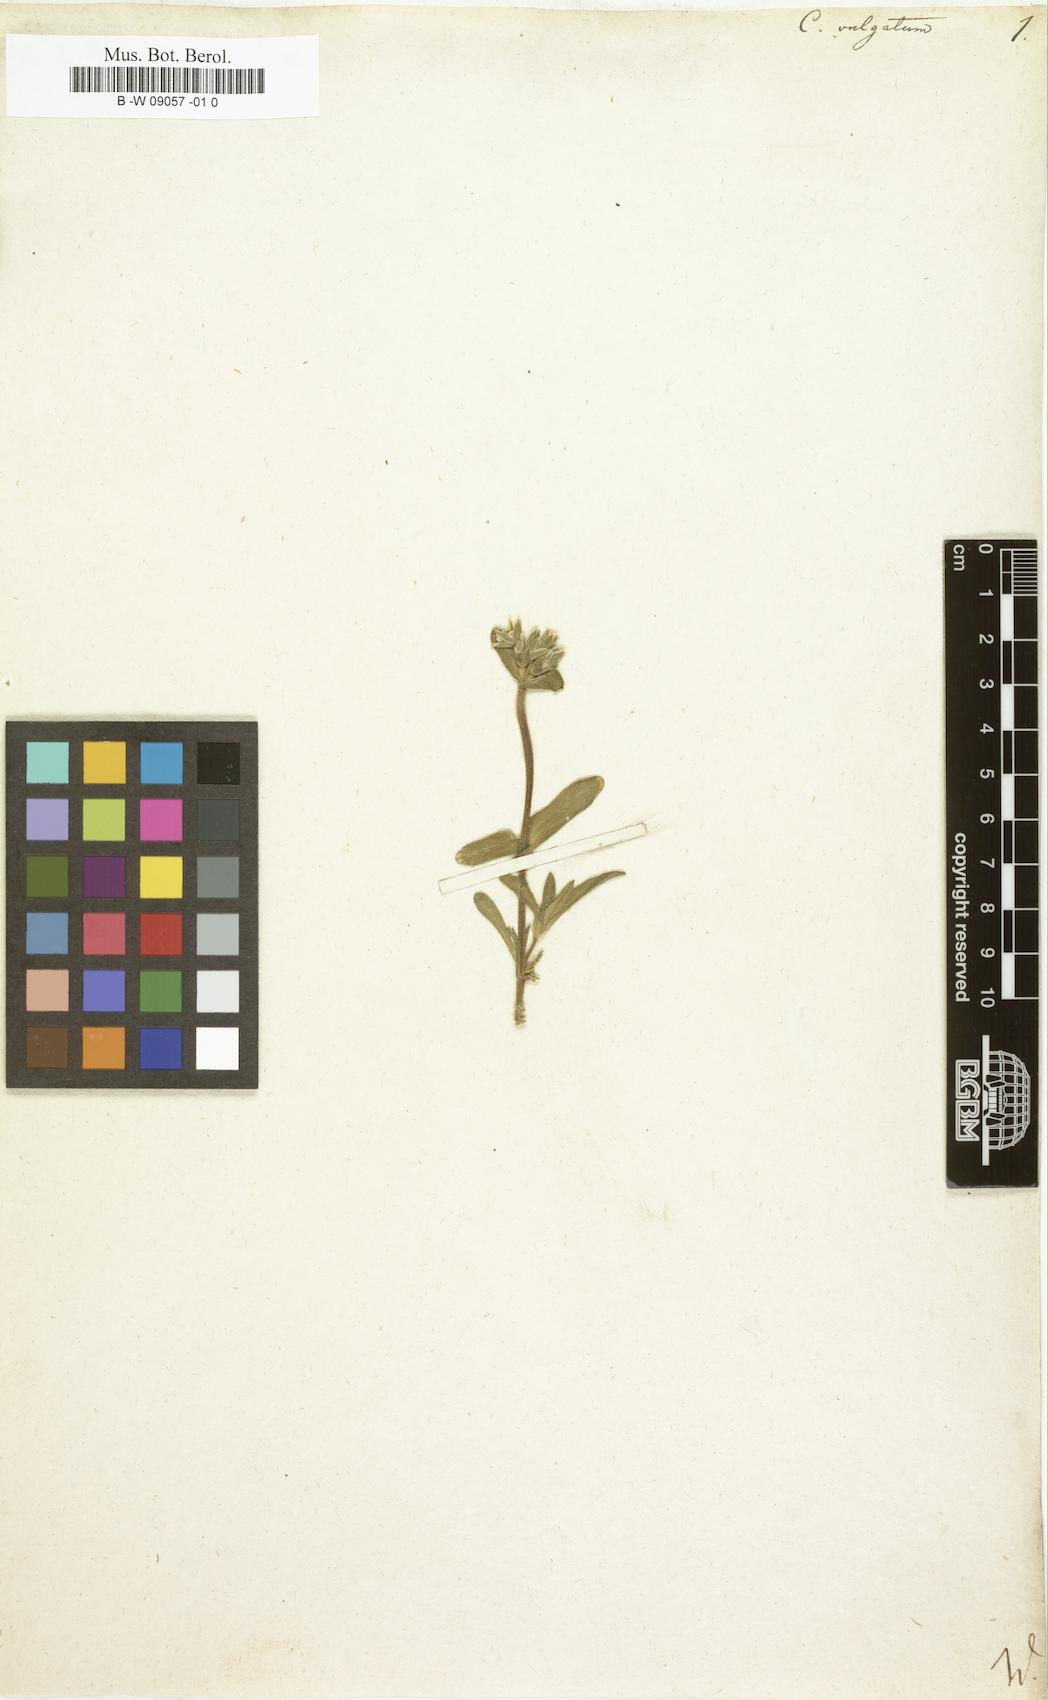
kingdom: Plantae
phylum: Tracheophyta
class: Magnoliopsida
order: Caryophyllales
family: Caryophyllaceae
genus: Cerastium
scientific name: Cerastium
